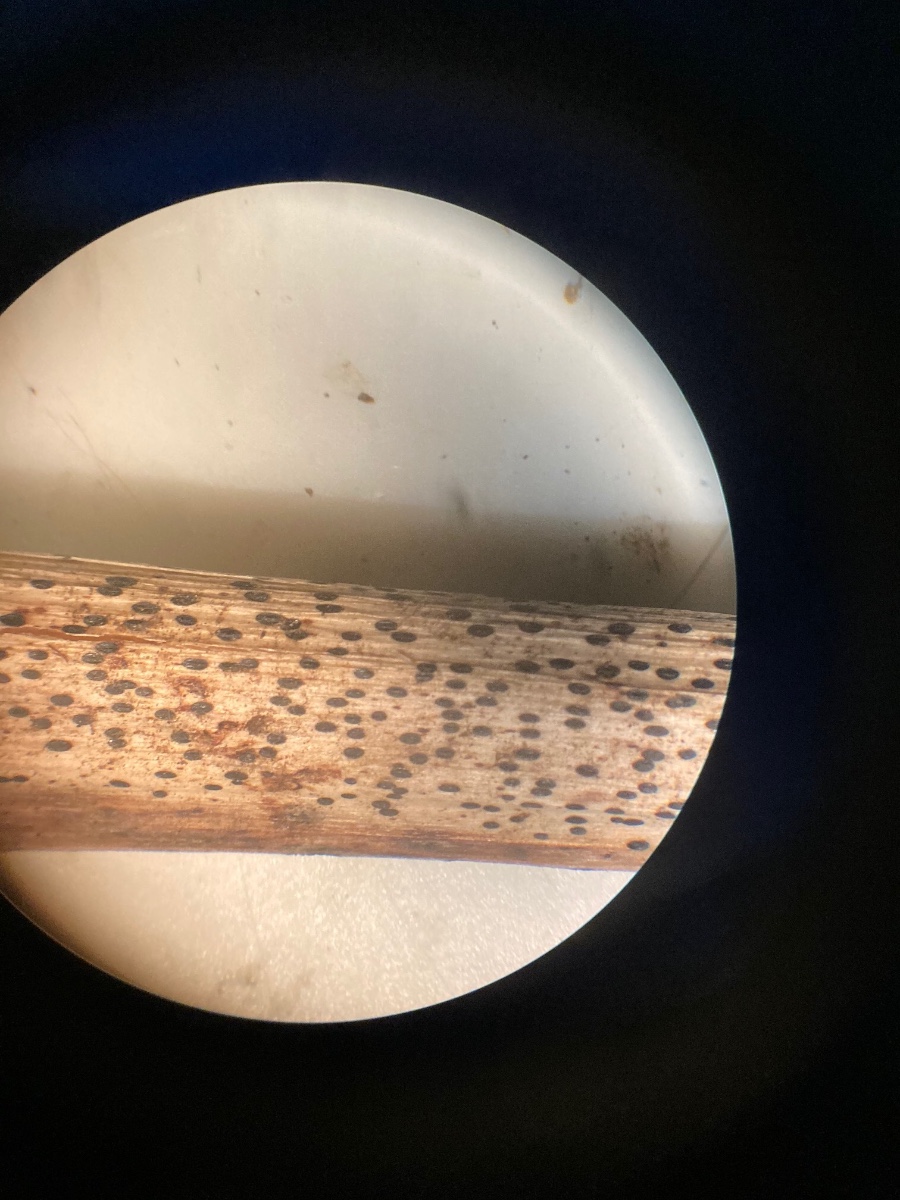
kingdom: Fungi
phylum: Ascomycota
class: Leotiomycetes
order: Rhytismatales
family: Rhytismataceae
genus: Lophodermium
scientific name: Lophodermium paeoniae
